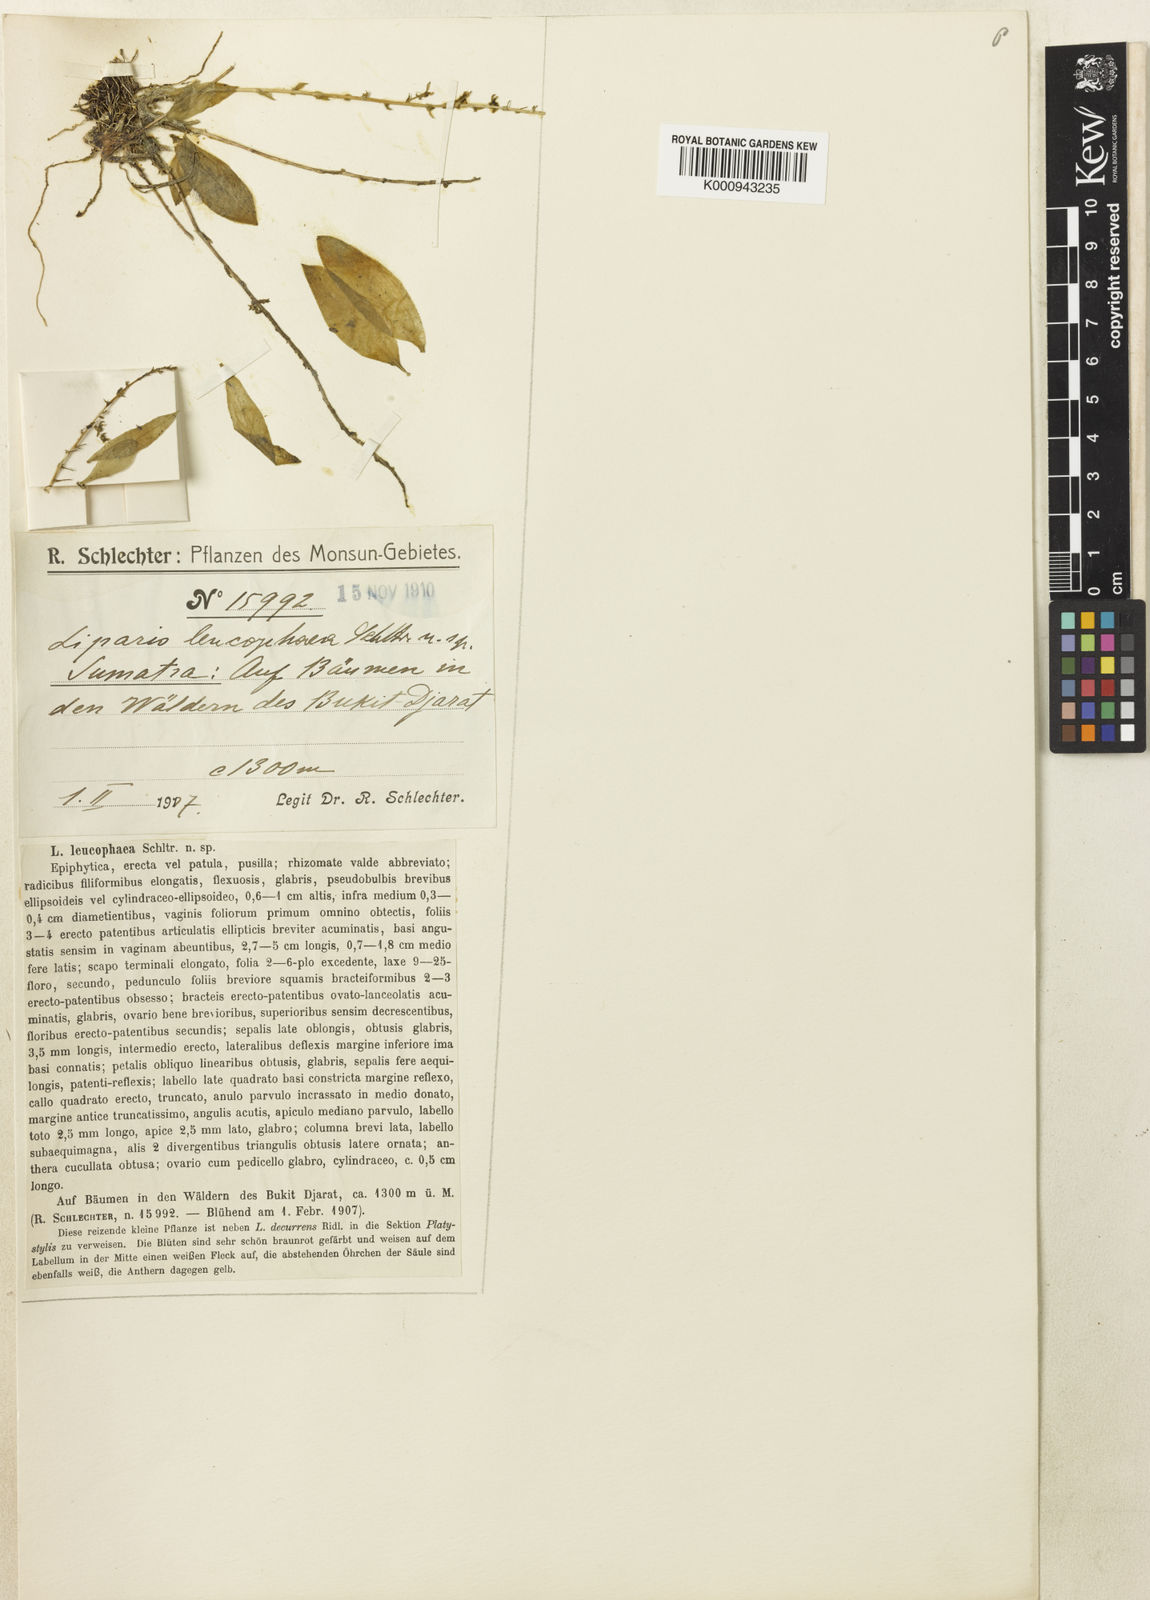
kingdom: Plantae
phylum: Tracheophyta
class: Liliopsida
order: Asparagales
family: Orchidaceae
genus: Alatiliparis
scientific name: Alatiliparis leucophaea
